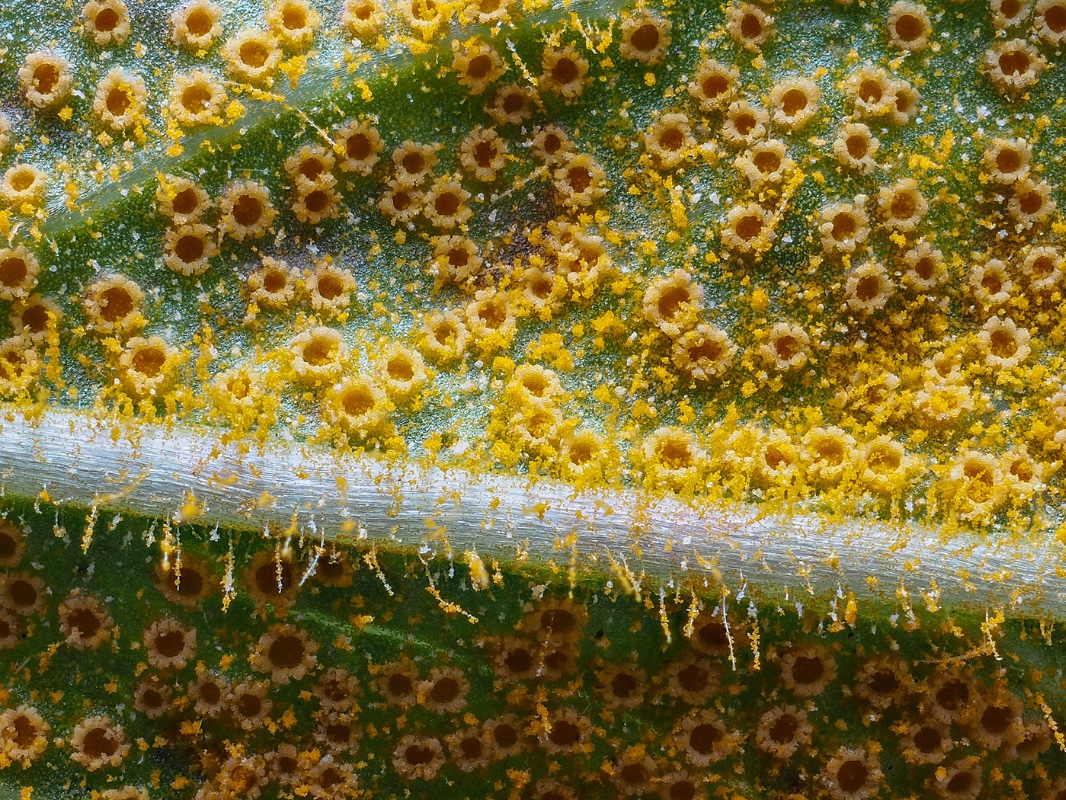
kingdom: Fungi
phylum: Basidiomycota
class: Pucciniomycetes
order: Pucciniales
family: Pucciniaceae
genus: Puccinia
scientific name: Puccinia pulverulenta
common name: dueurt-tvecellerust
